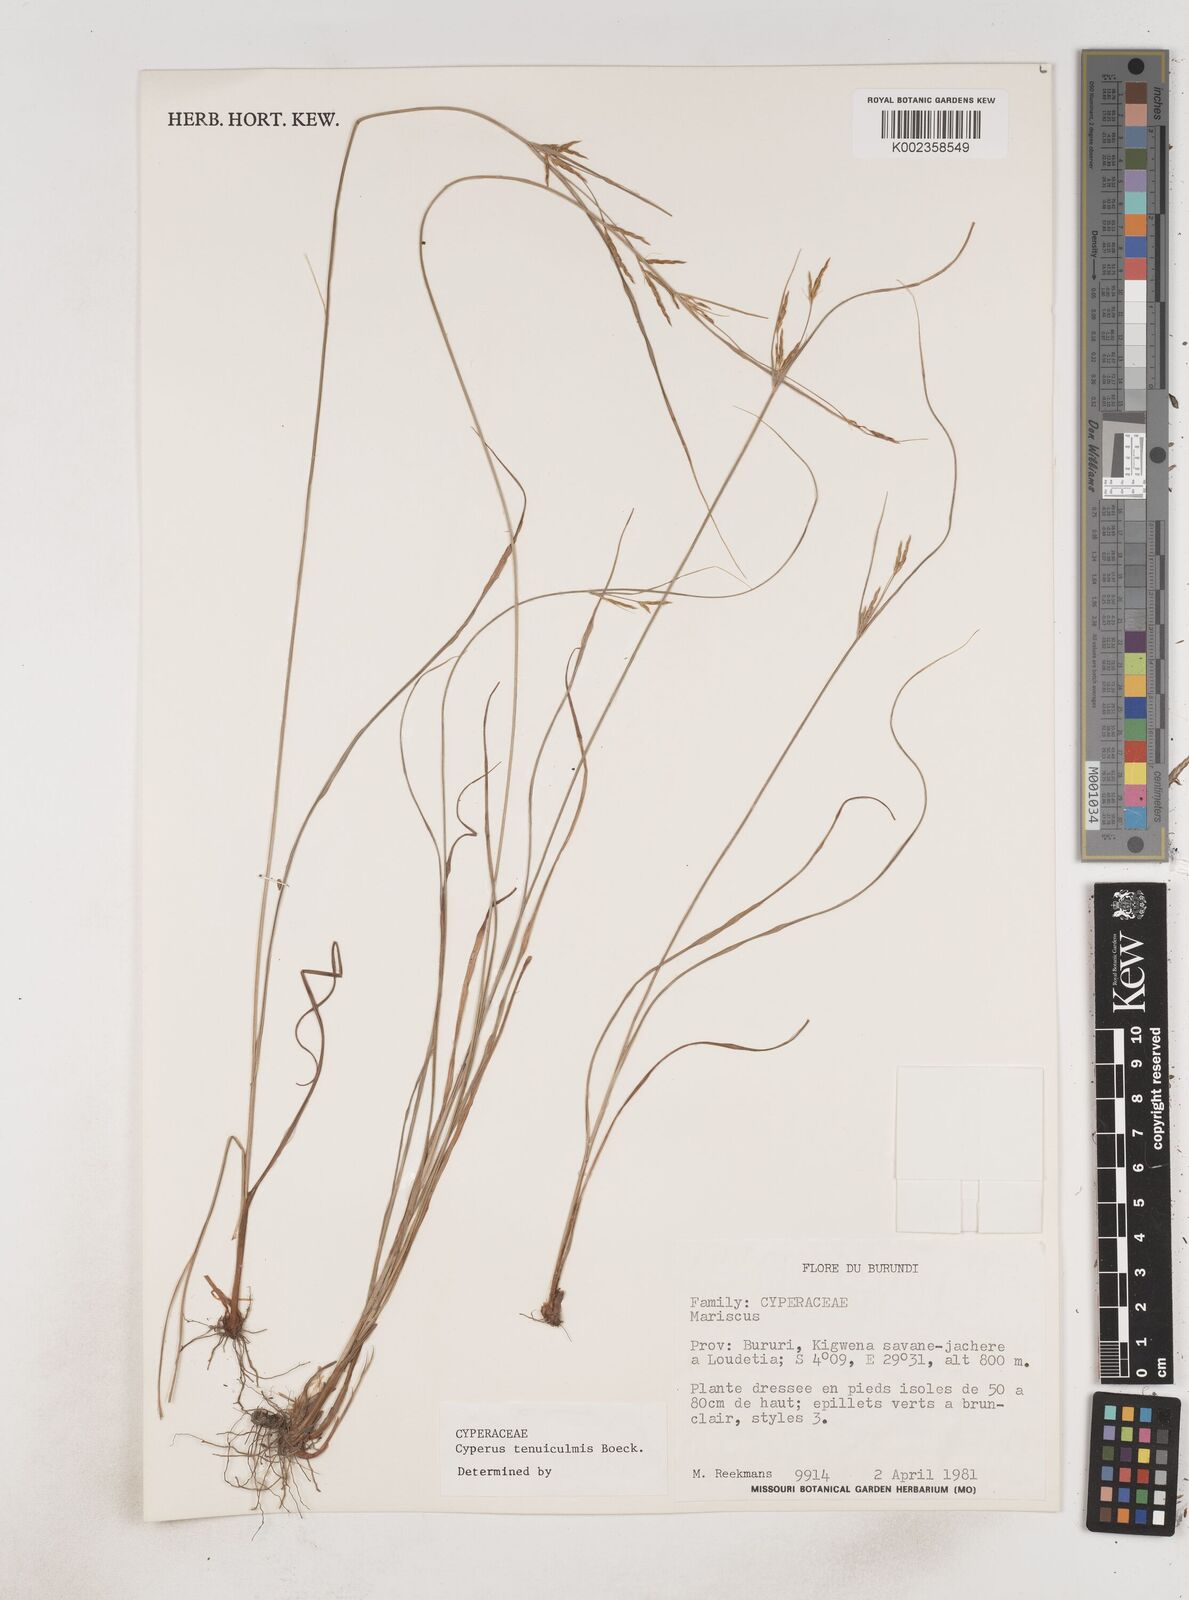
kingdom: Plantae
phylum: Tracheophyta
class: Liliopsida
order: Poales
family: Cyperaceae
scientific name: Cyperaceae
